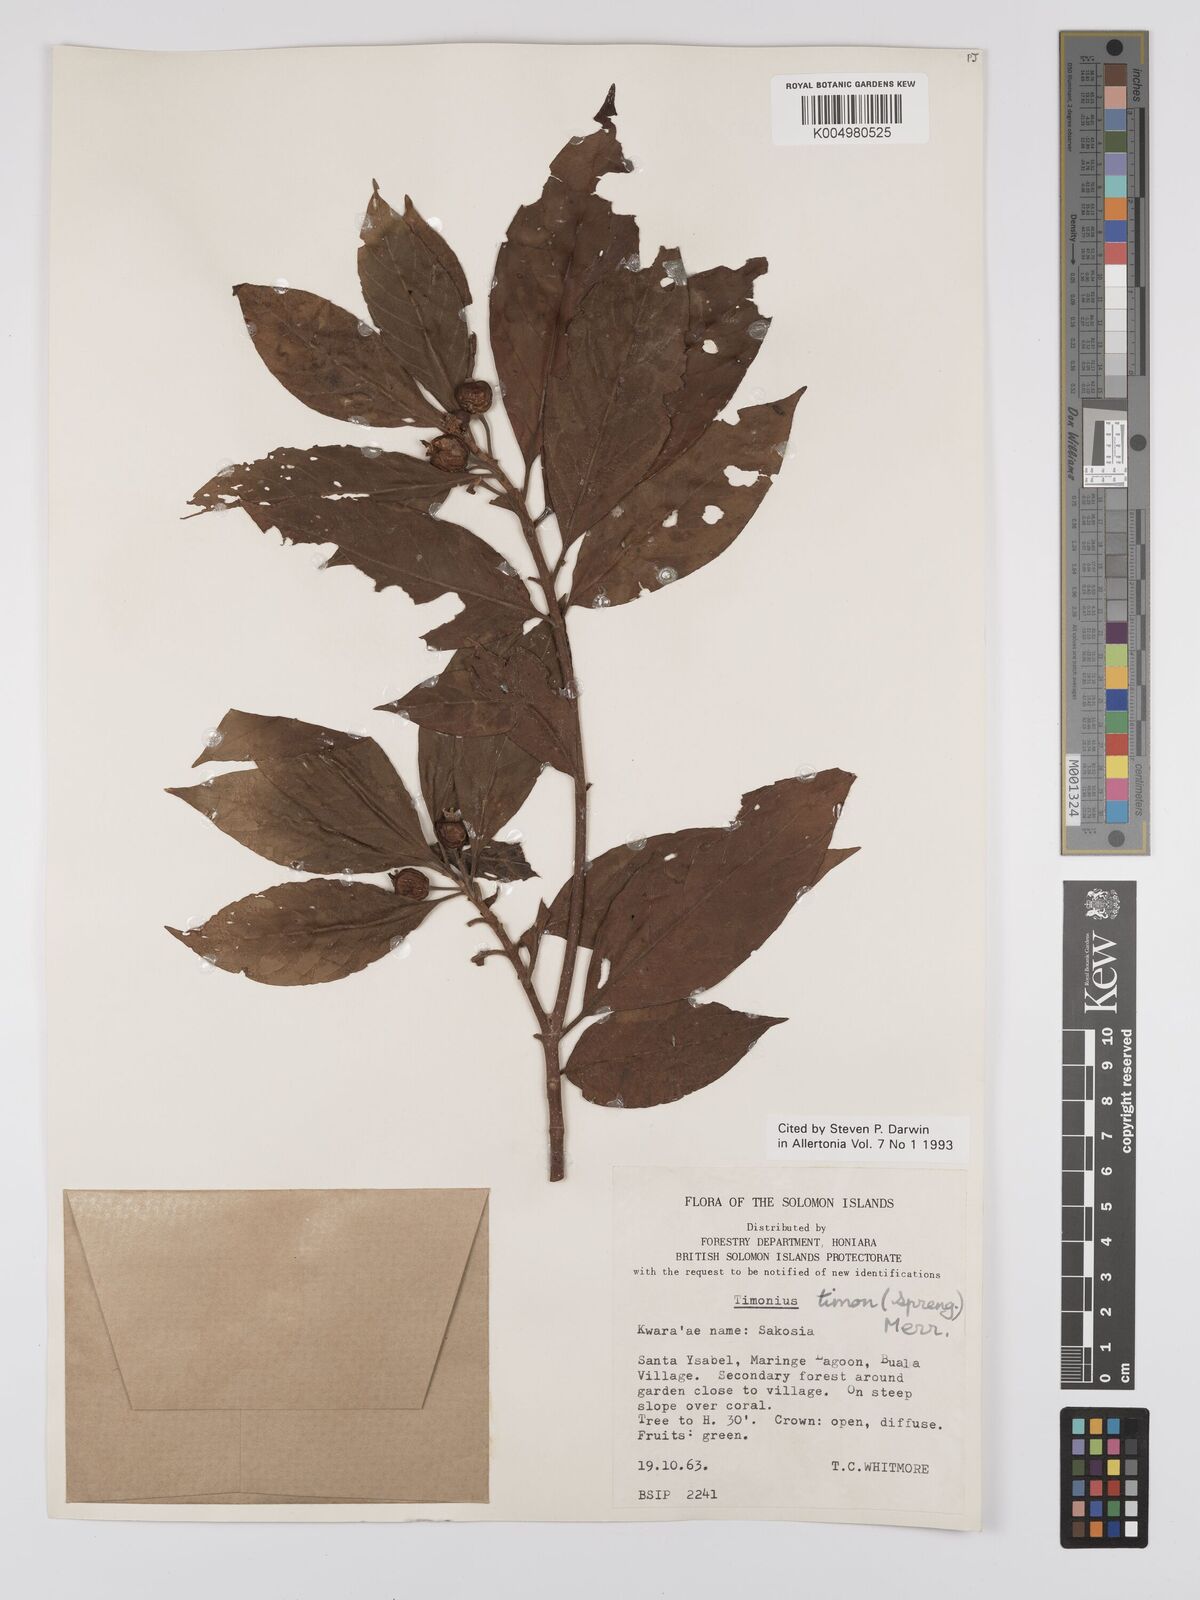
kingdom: Plantae
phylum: Tracheophyta
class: Magnoliopsida
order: Gentianales
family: Rubiaceae
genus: Timonius
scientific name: Timonius timon
